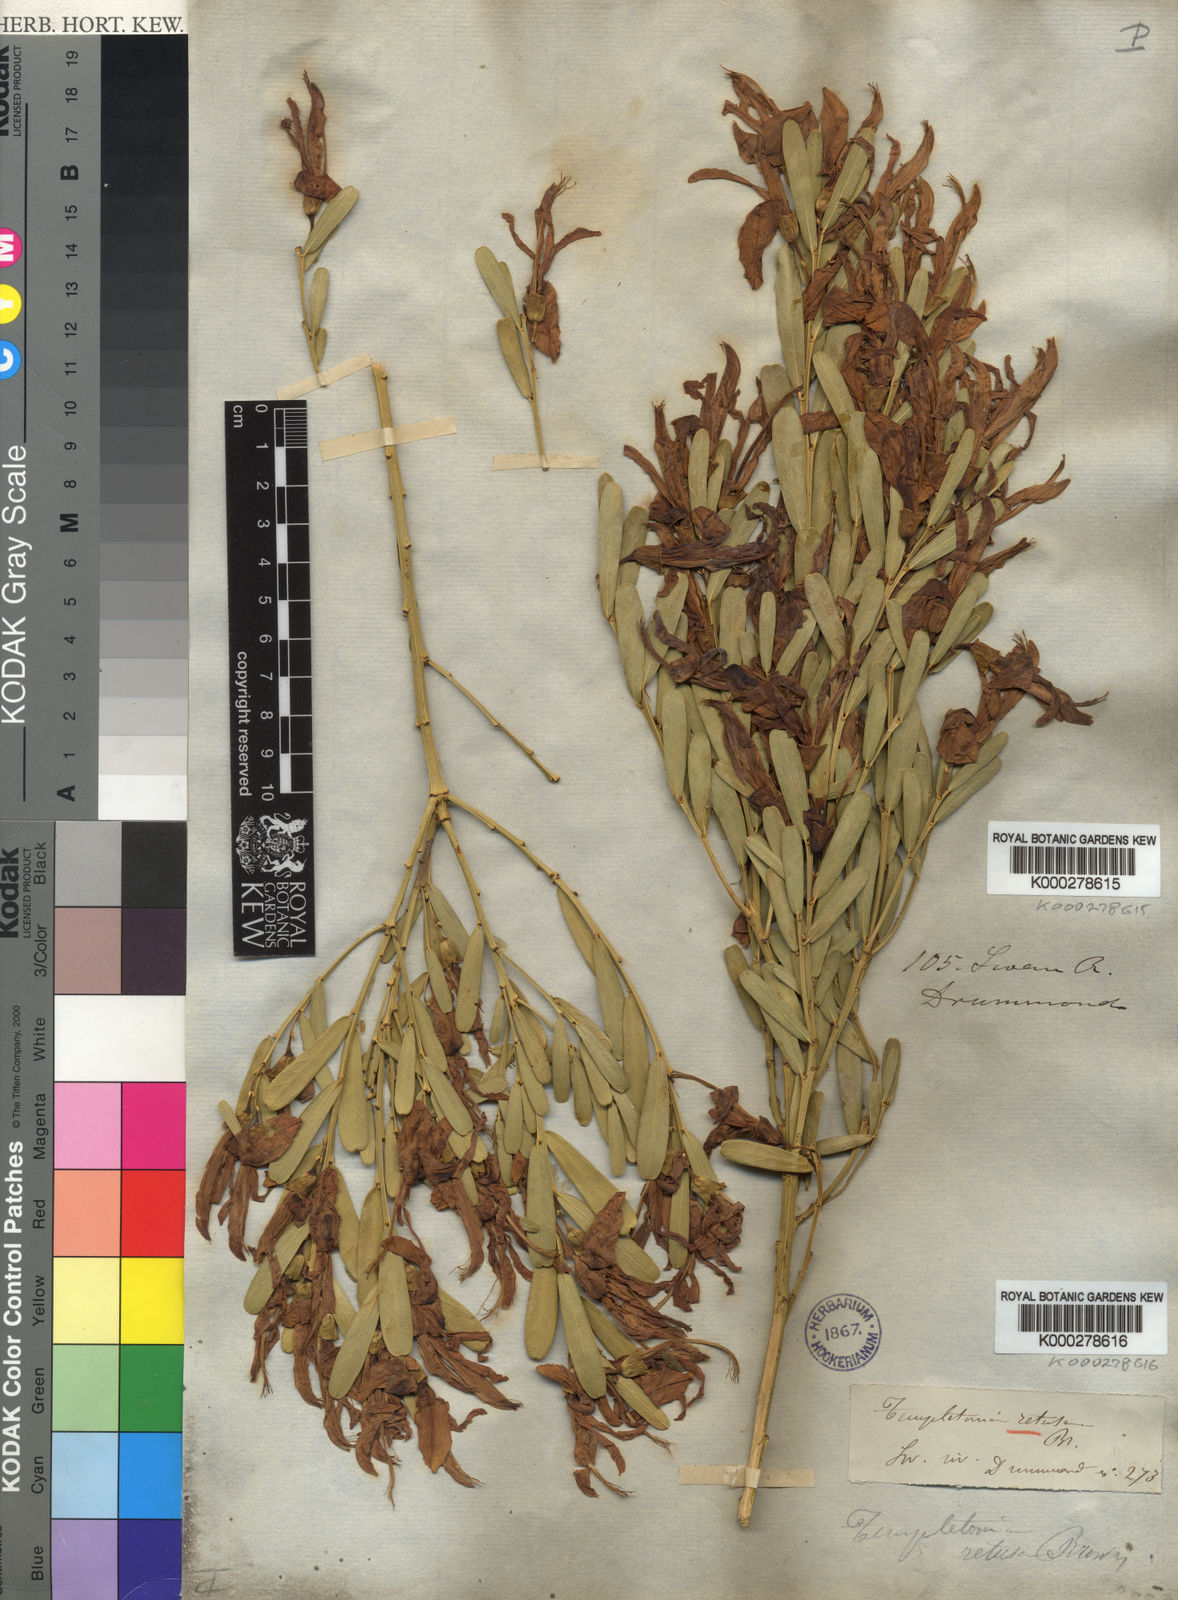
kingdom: Plantae
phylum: Tracheophyta
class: Magnoliopsida
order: Fabales
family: Fabaceae
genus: Templetonia
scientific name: Templetonia retusa
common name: Cockies'-tongue
